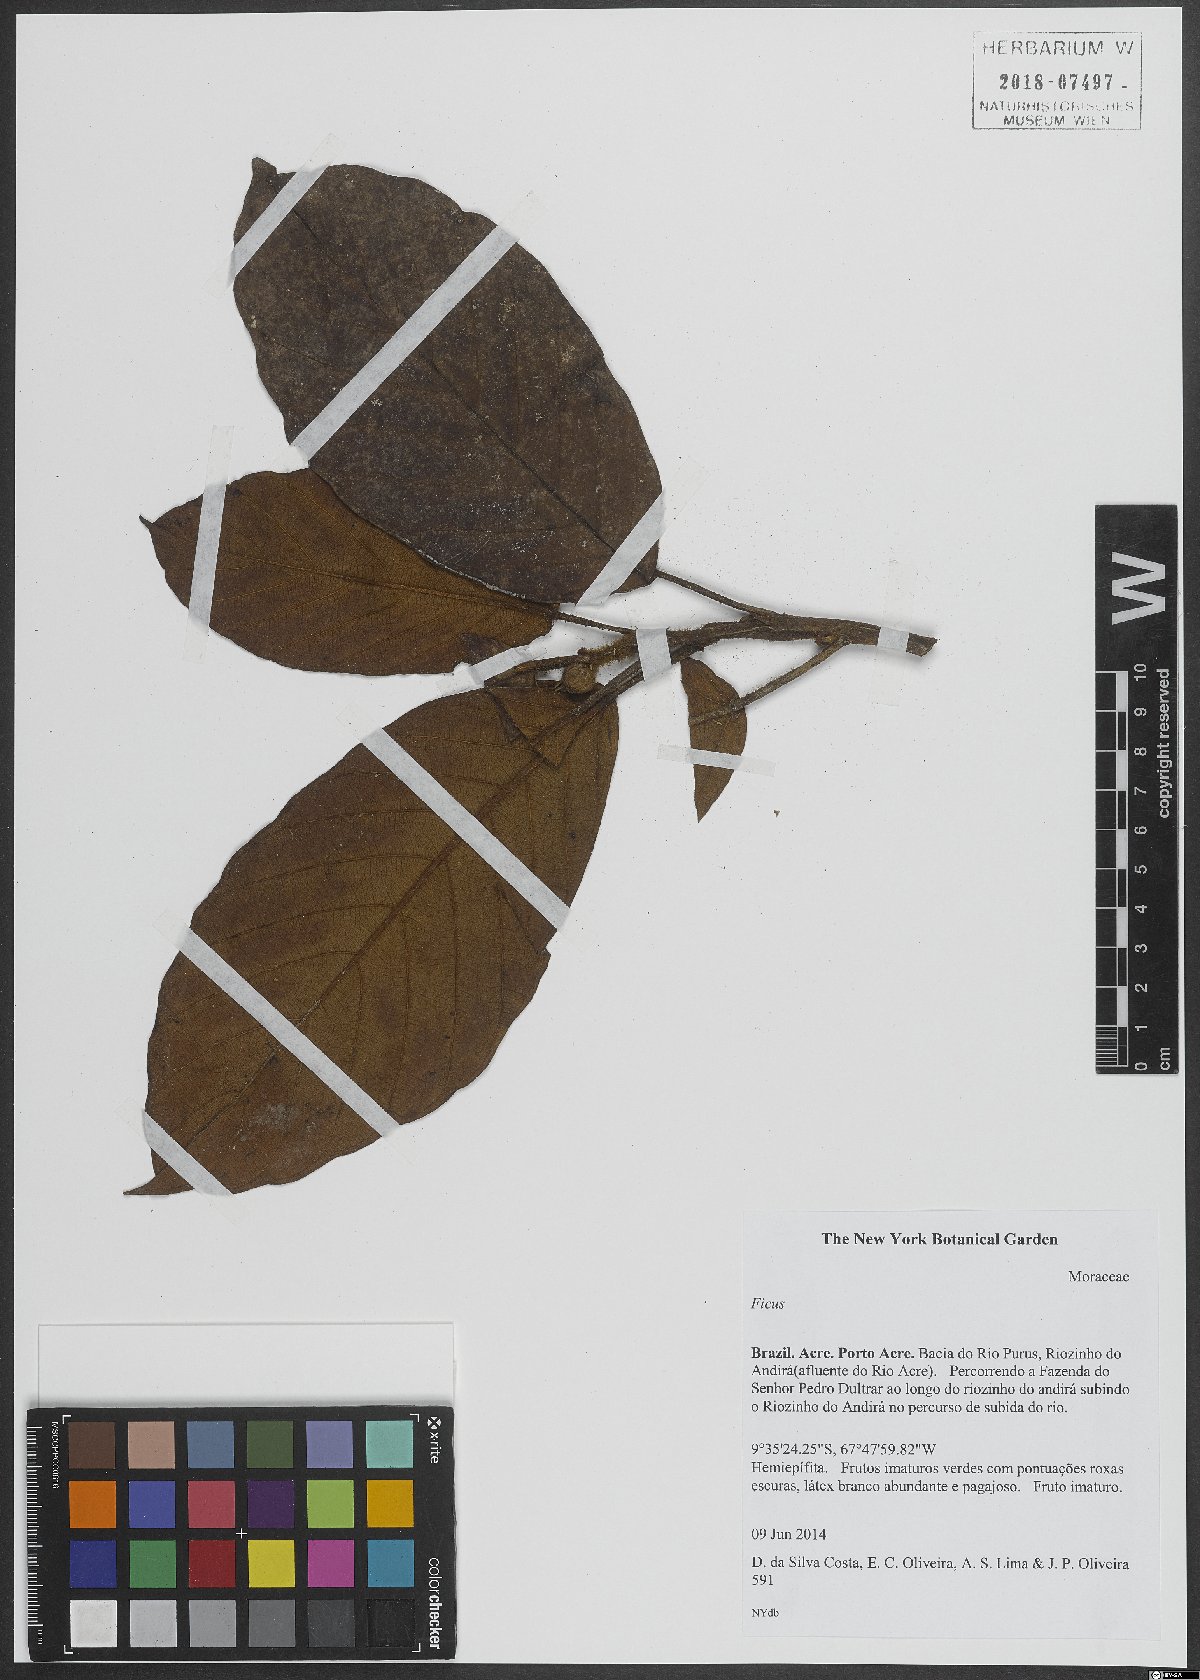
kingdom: Plantae
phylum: Tracheophyta
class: Magnoliopsida
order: Rosales
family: Moraceae
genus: Ficus
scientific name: Ficus
